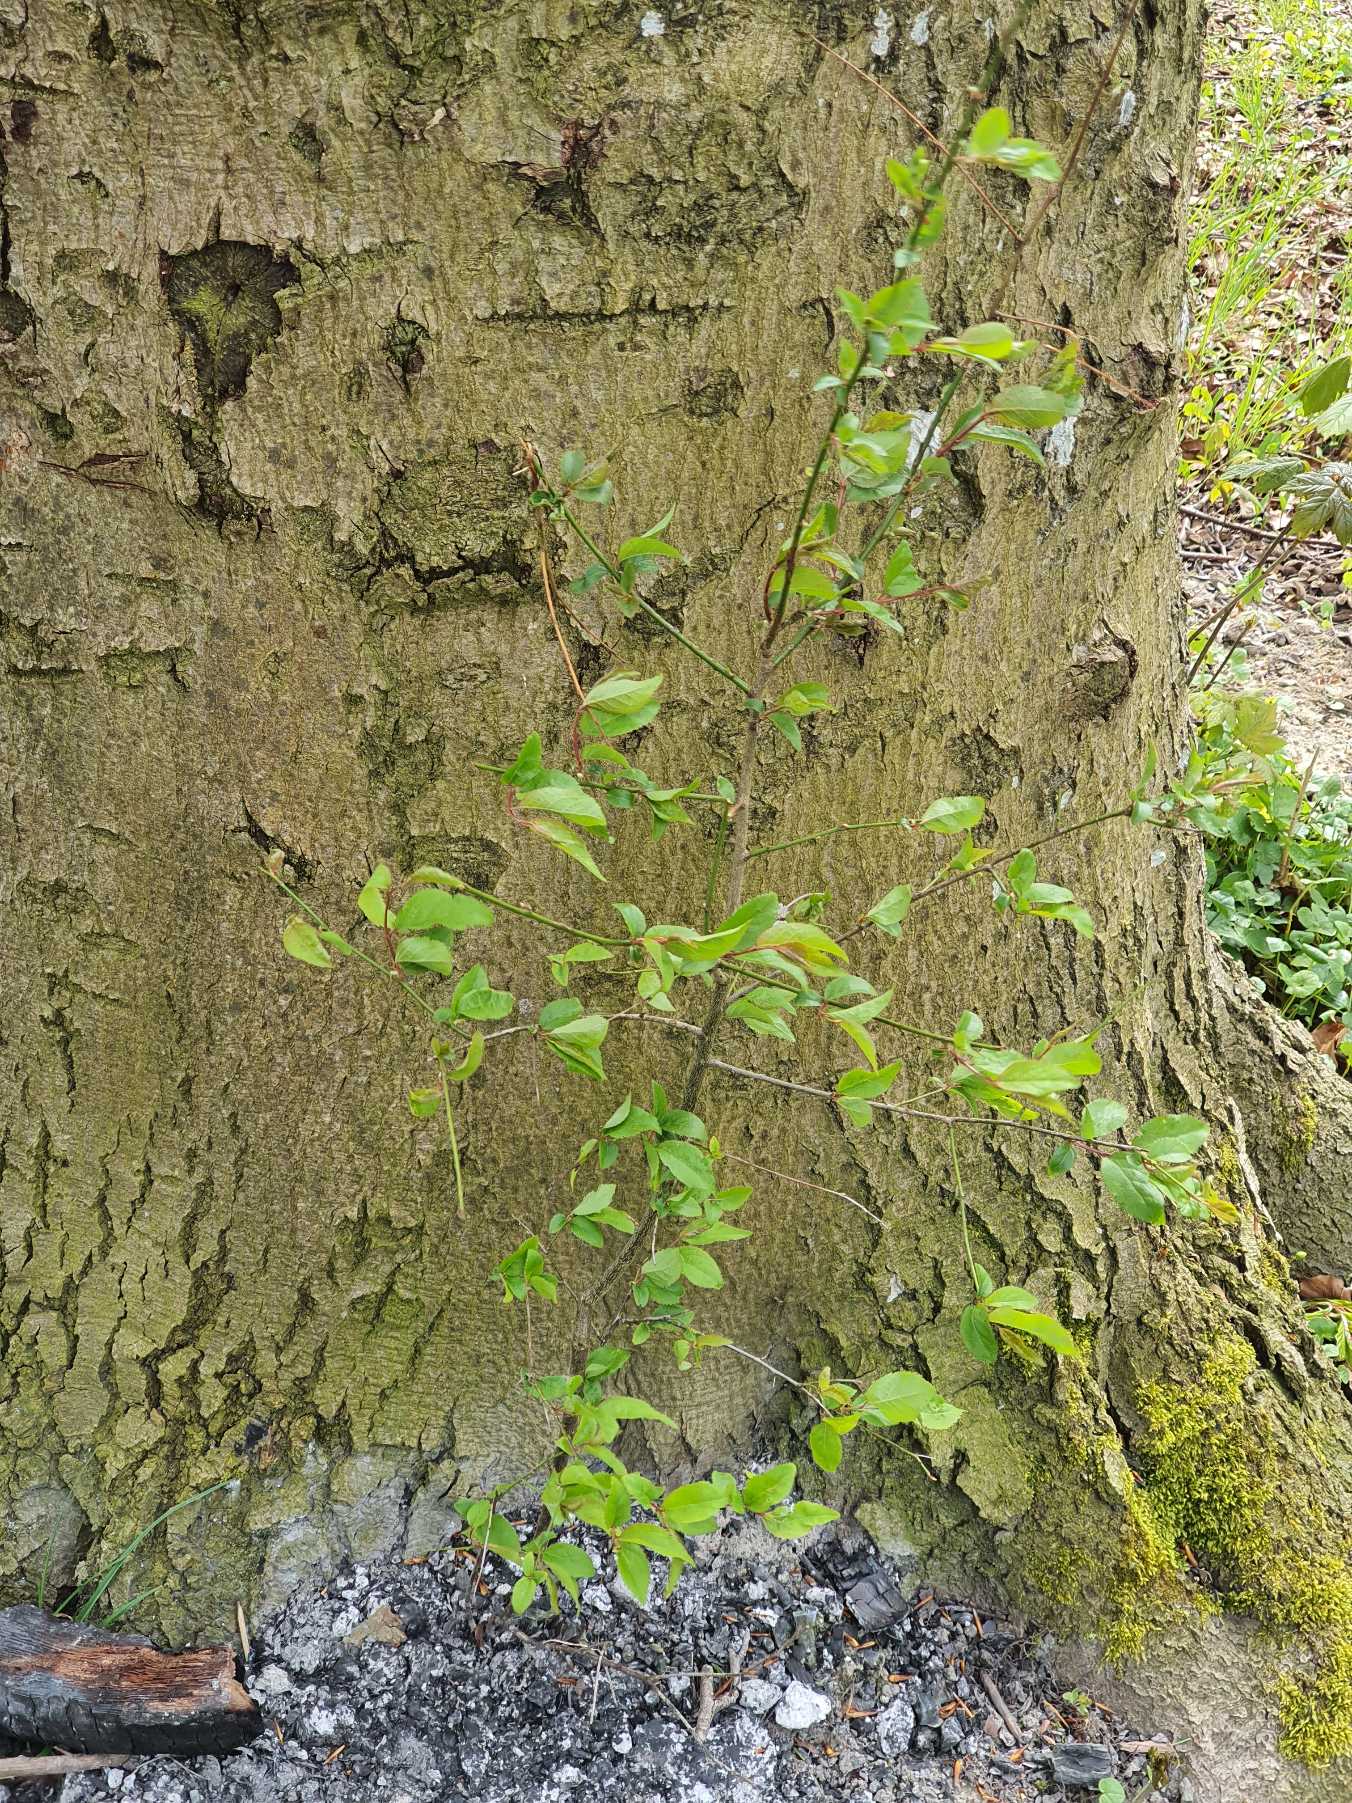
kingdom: Plantae
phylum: Tracheophyta
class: Magnoliopsida
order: Rosales
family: Rosaceae
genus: Prunus
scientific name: Prunus cerasifera
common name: Mirabel
